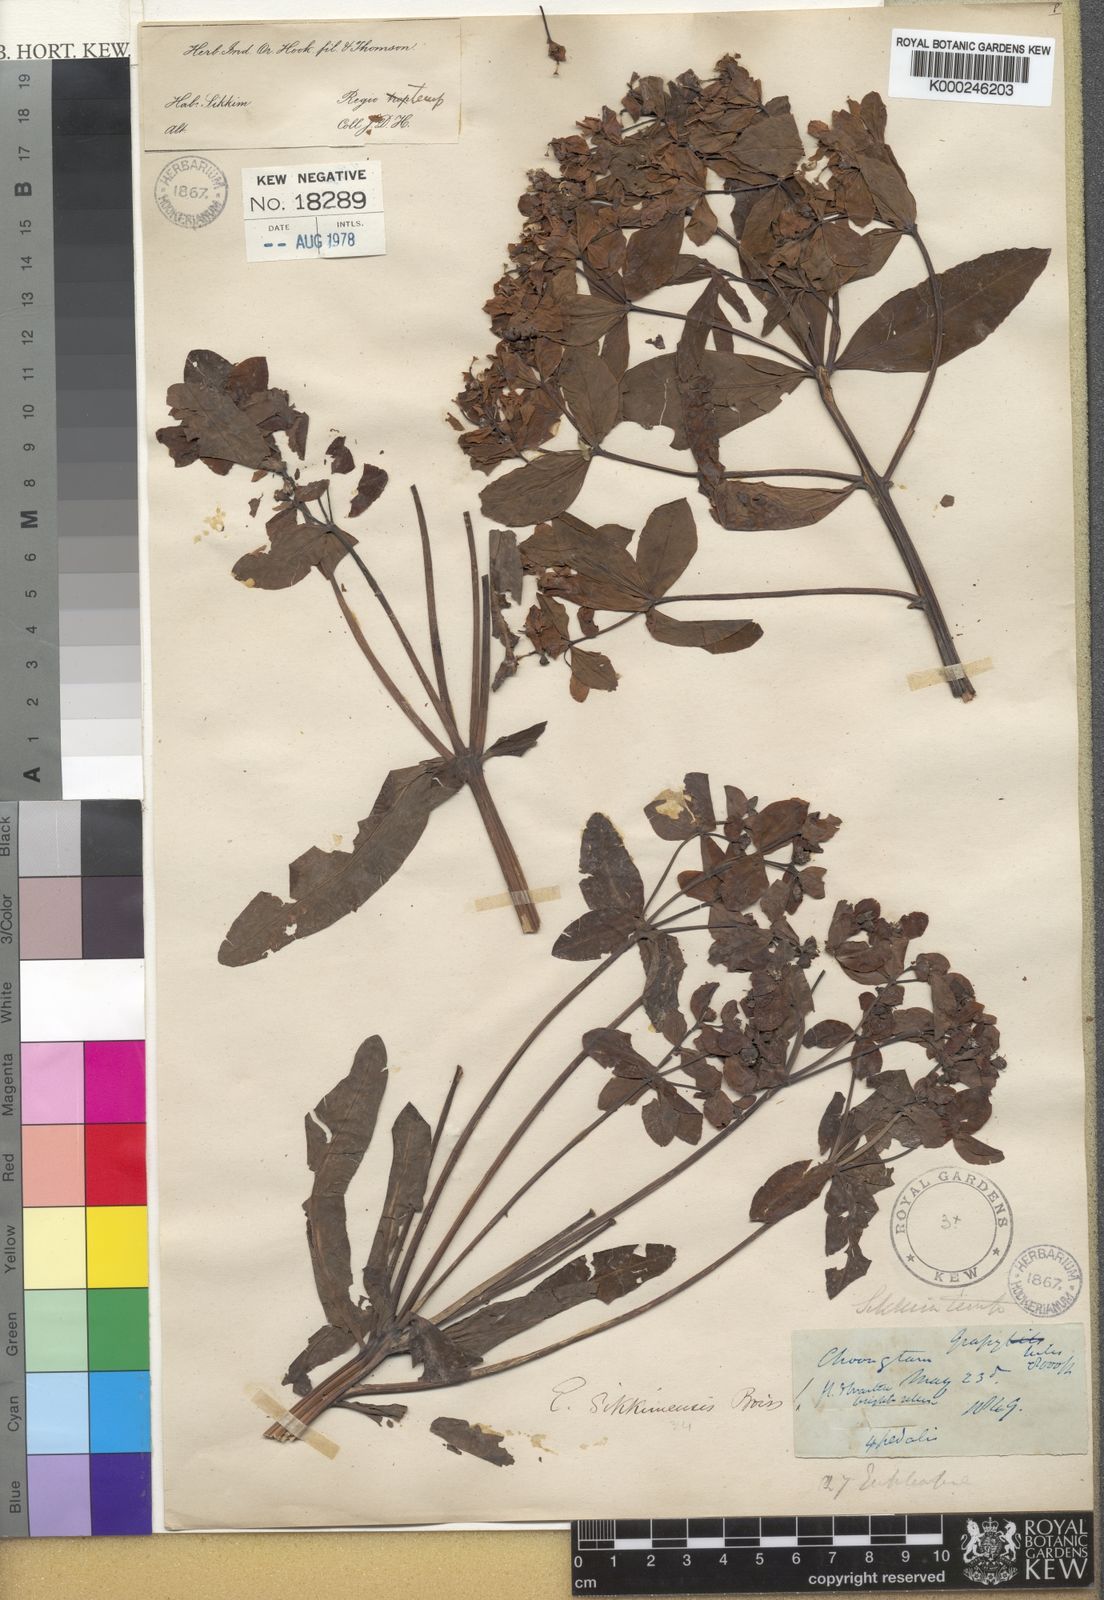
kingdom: Plantae
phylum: Tracheophyta
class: Magnoliopsida
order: Malpighiales
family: Euphorbiaceae
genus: Euphorbia
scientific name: Euphorbia sikkimensis
